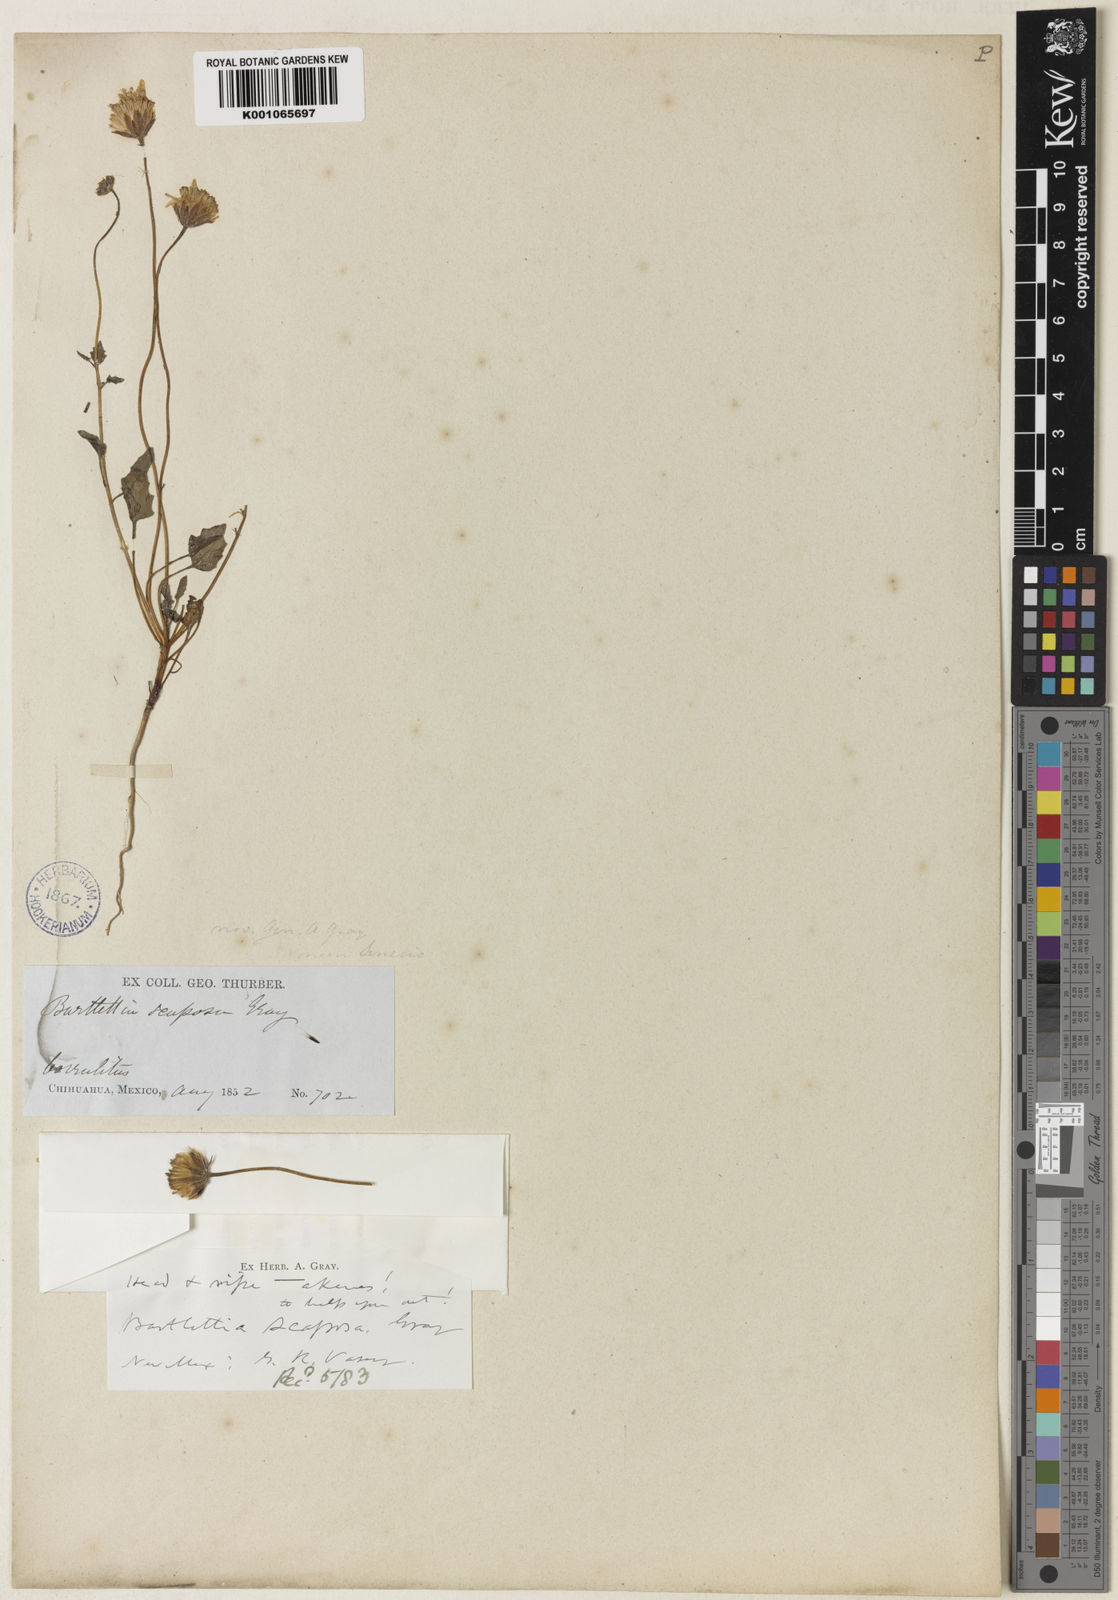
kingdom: Plantae
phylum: Tracheophyta
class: Magnoliopsida
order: Asterales
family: Asteraceae
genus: Bartlettia
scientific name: Bartlettia scaposa
